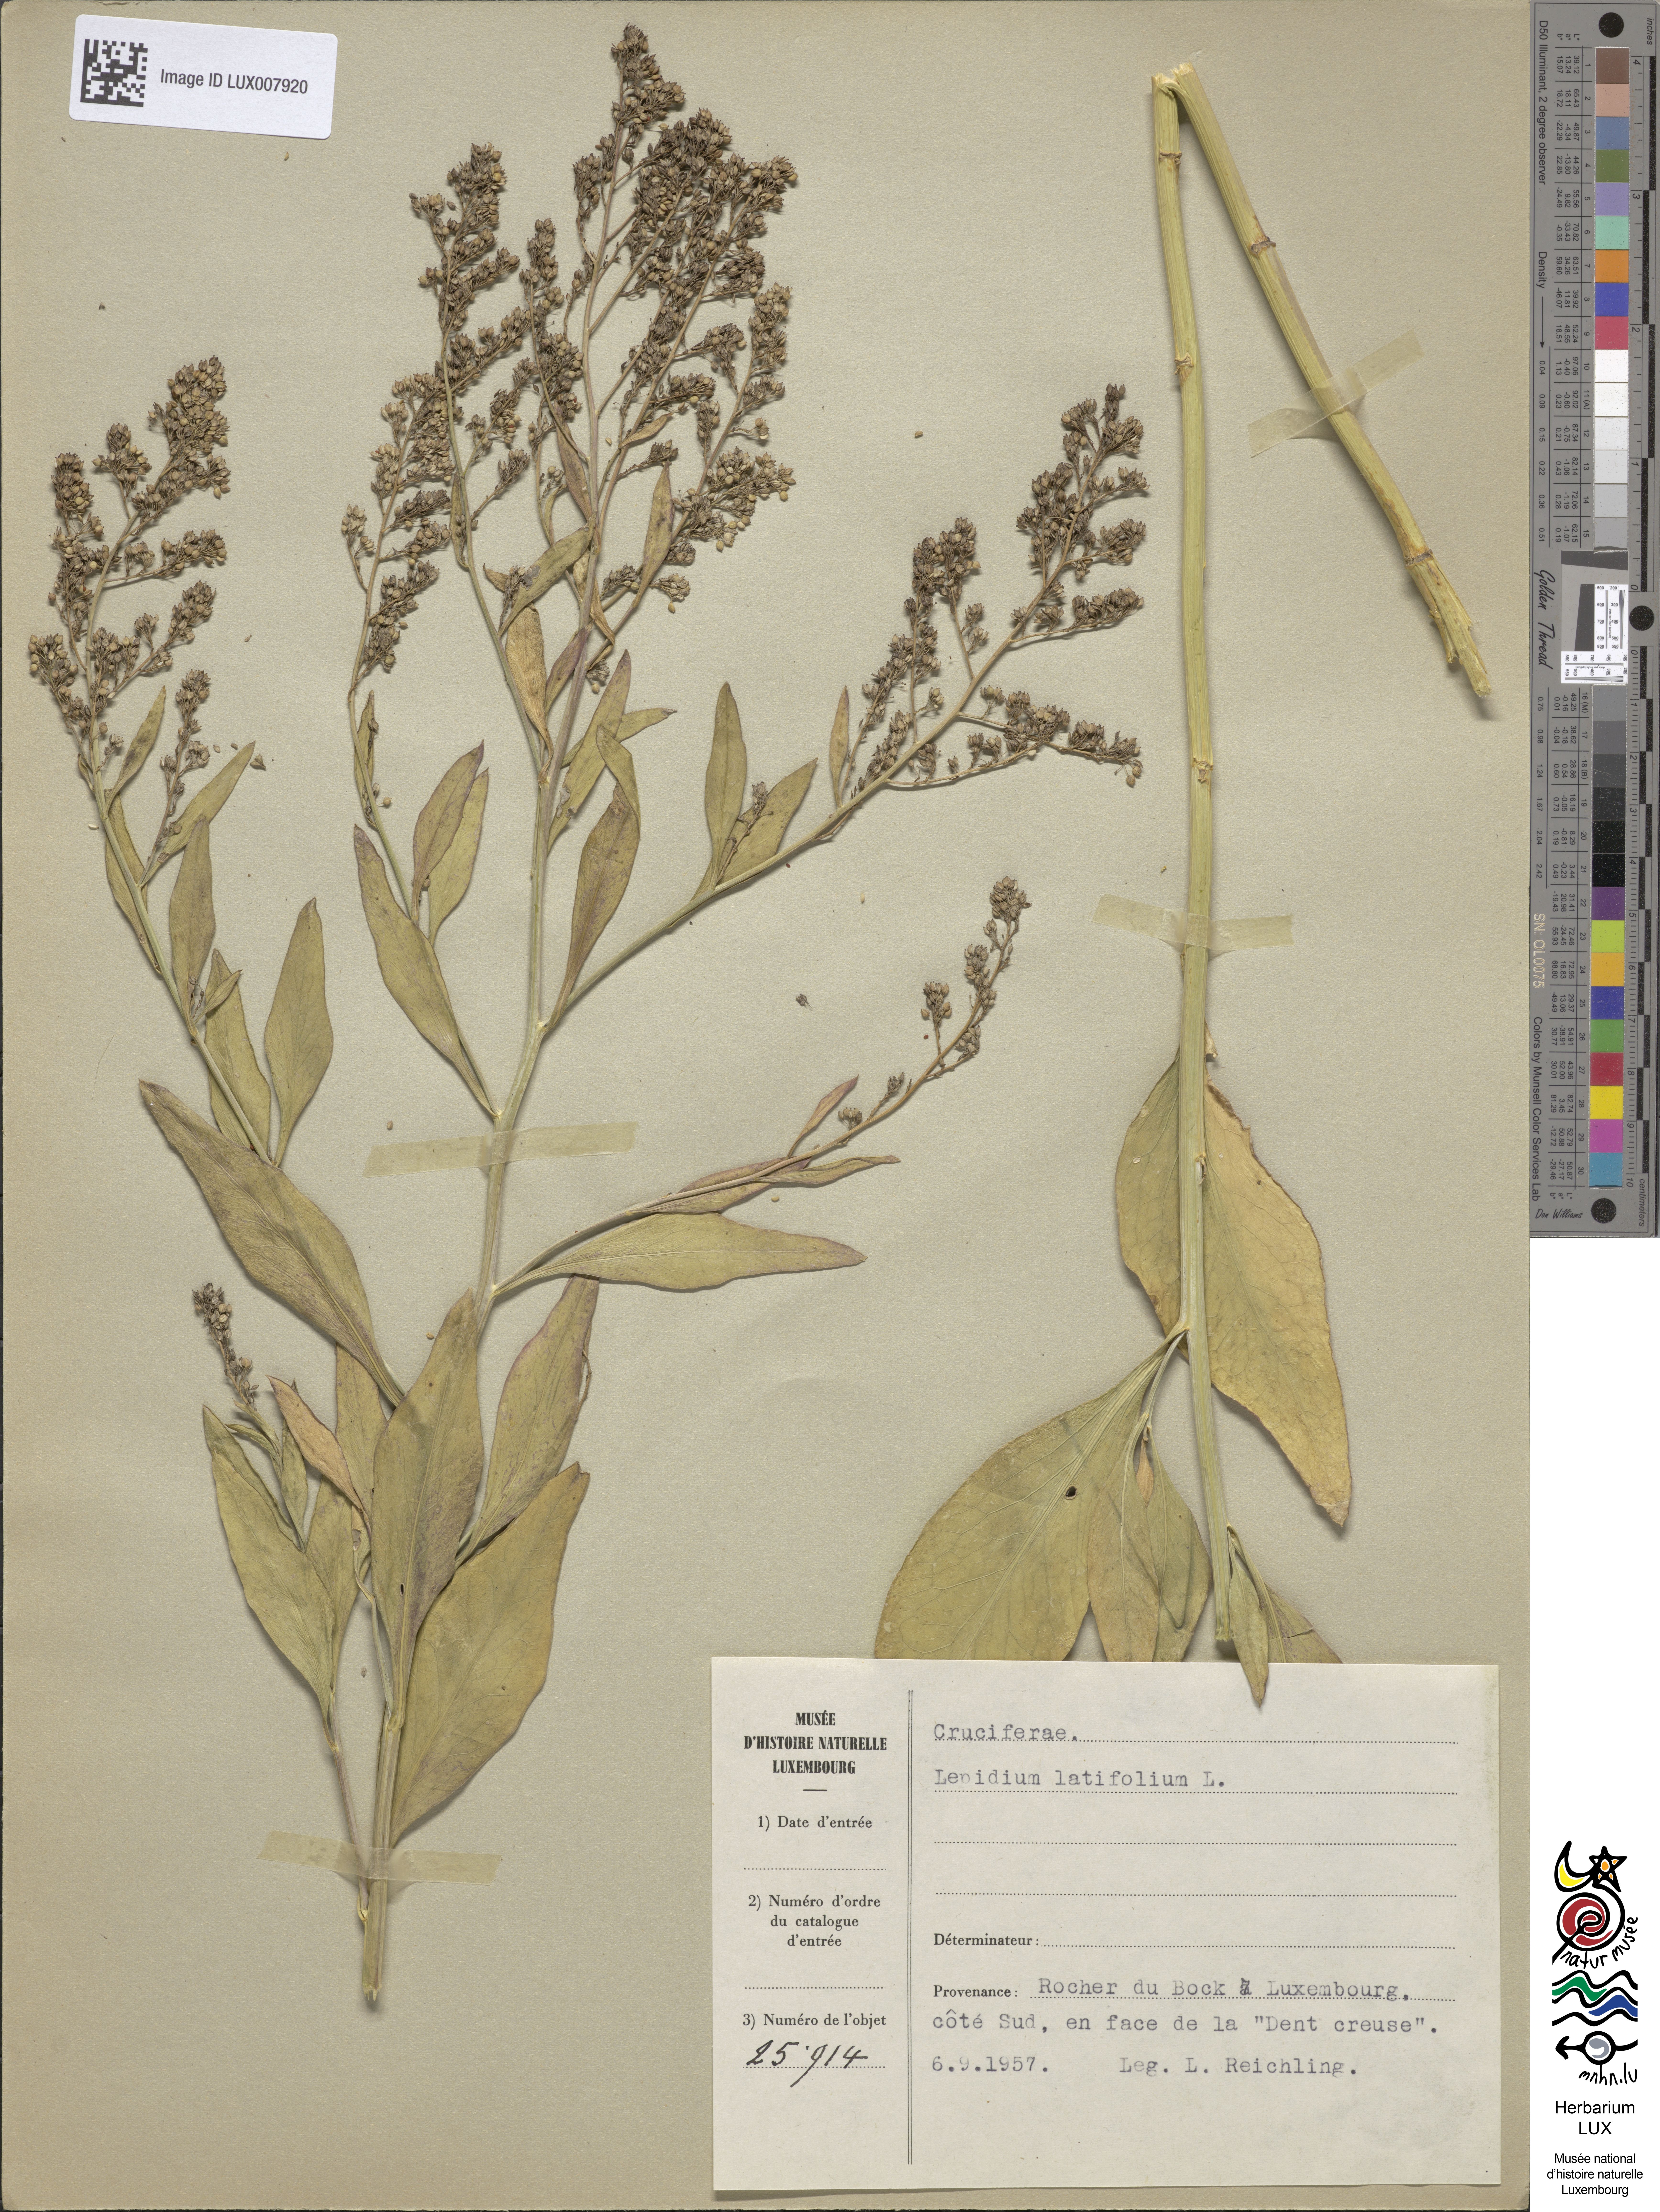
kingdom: Plantae
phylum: Tracheophyta
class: Magnoliopsida
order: Brassicales
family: Brassicaceae
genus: Lepidium
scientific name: Lepidium latifolium
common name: Dittander
